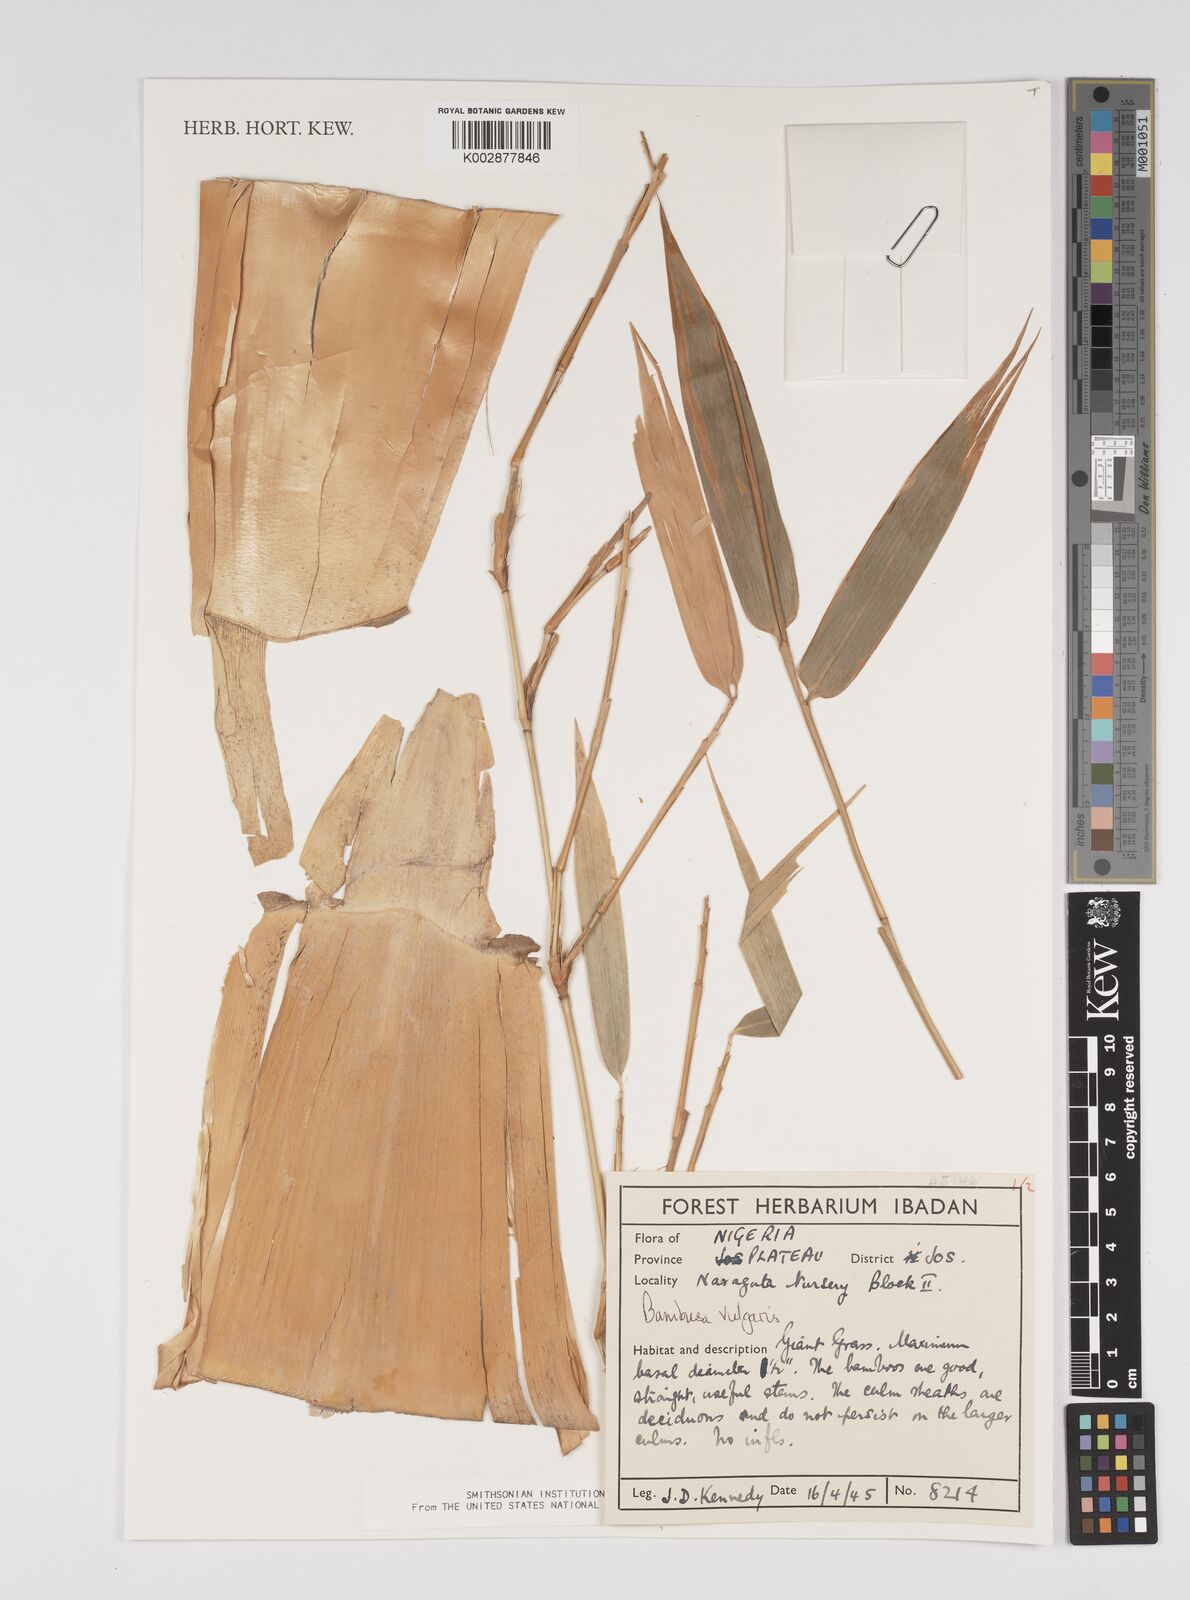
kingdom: Plantae
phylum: Tracheophyta
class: Liliopsida
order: Poales
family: Poaceae
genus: Bambusa
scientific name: Bambusa vulgaris
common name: Common bamboo
